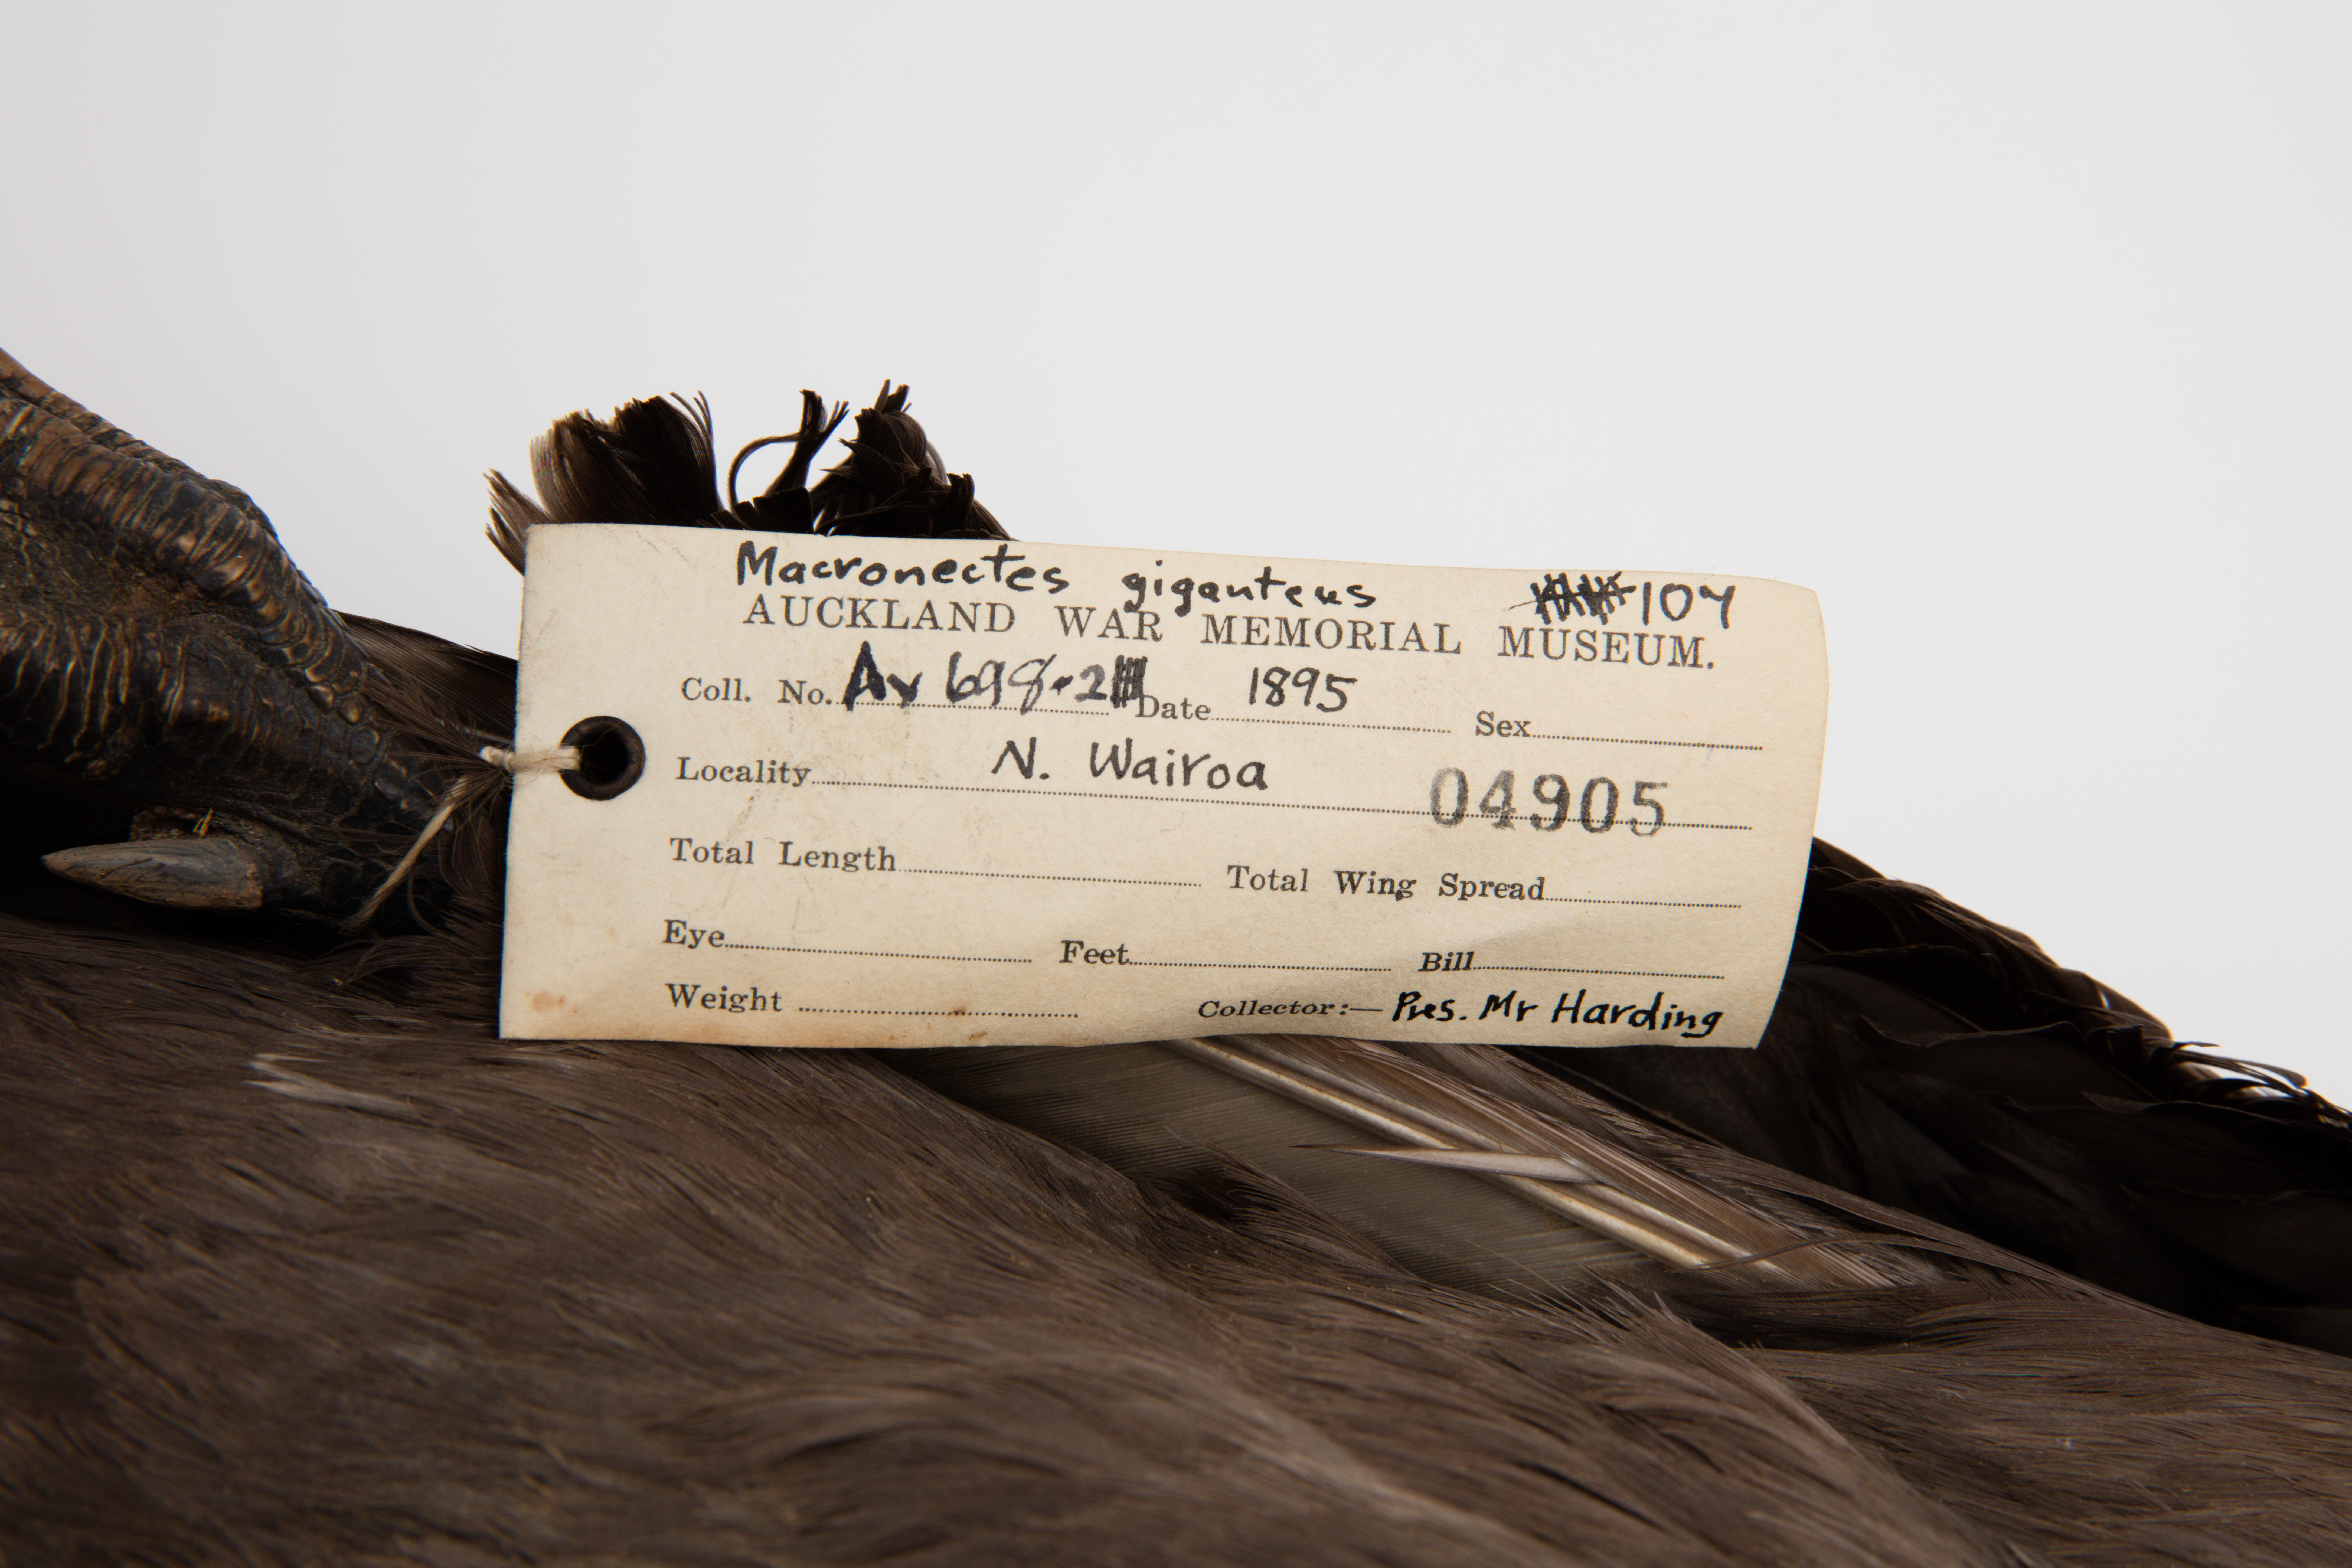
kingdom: Animalia
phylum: Chordata
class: Aves
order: Procellariiformes
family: Procellariidae
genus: Macronectes
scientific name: Macronectes giganteus
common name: Southern giant petrel
